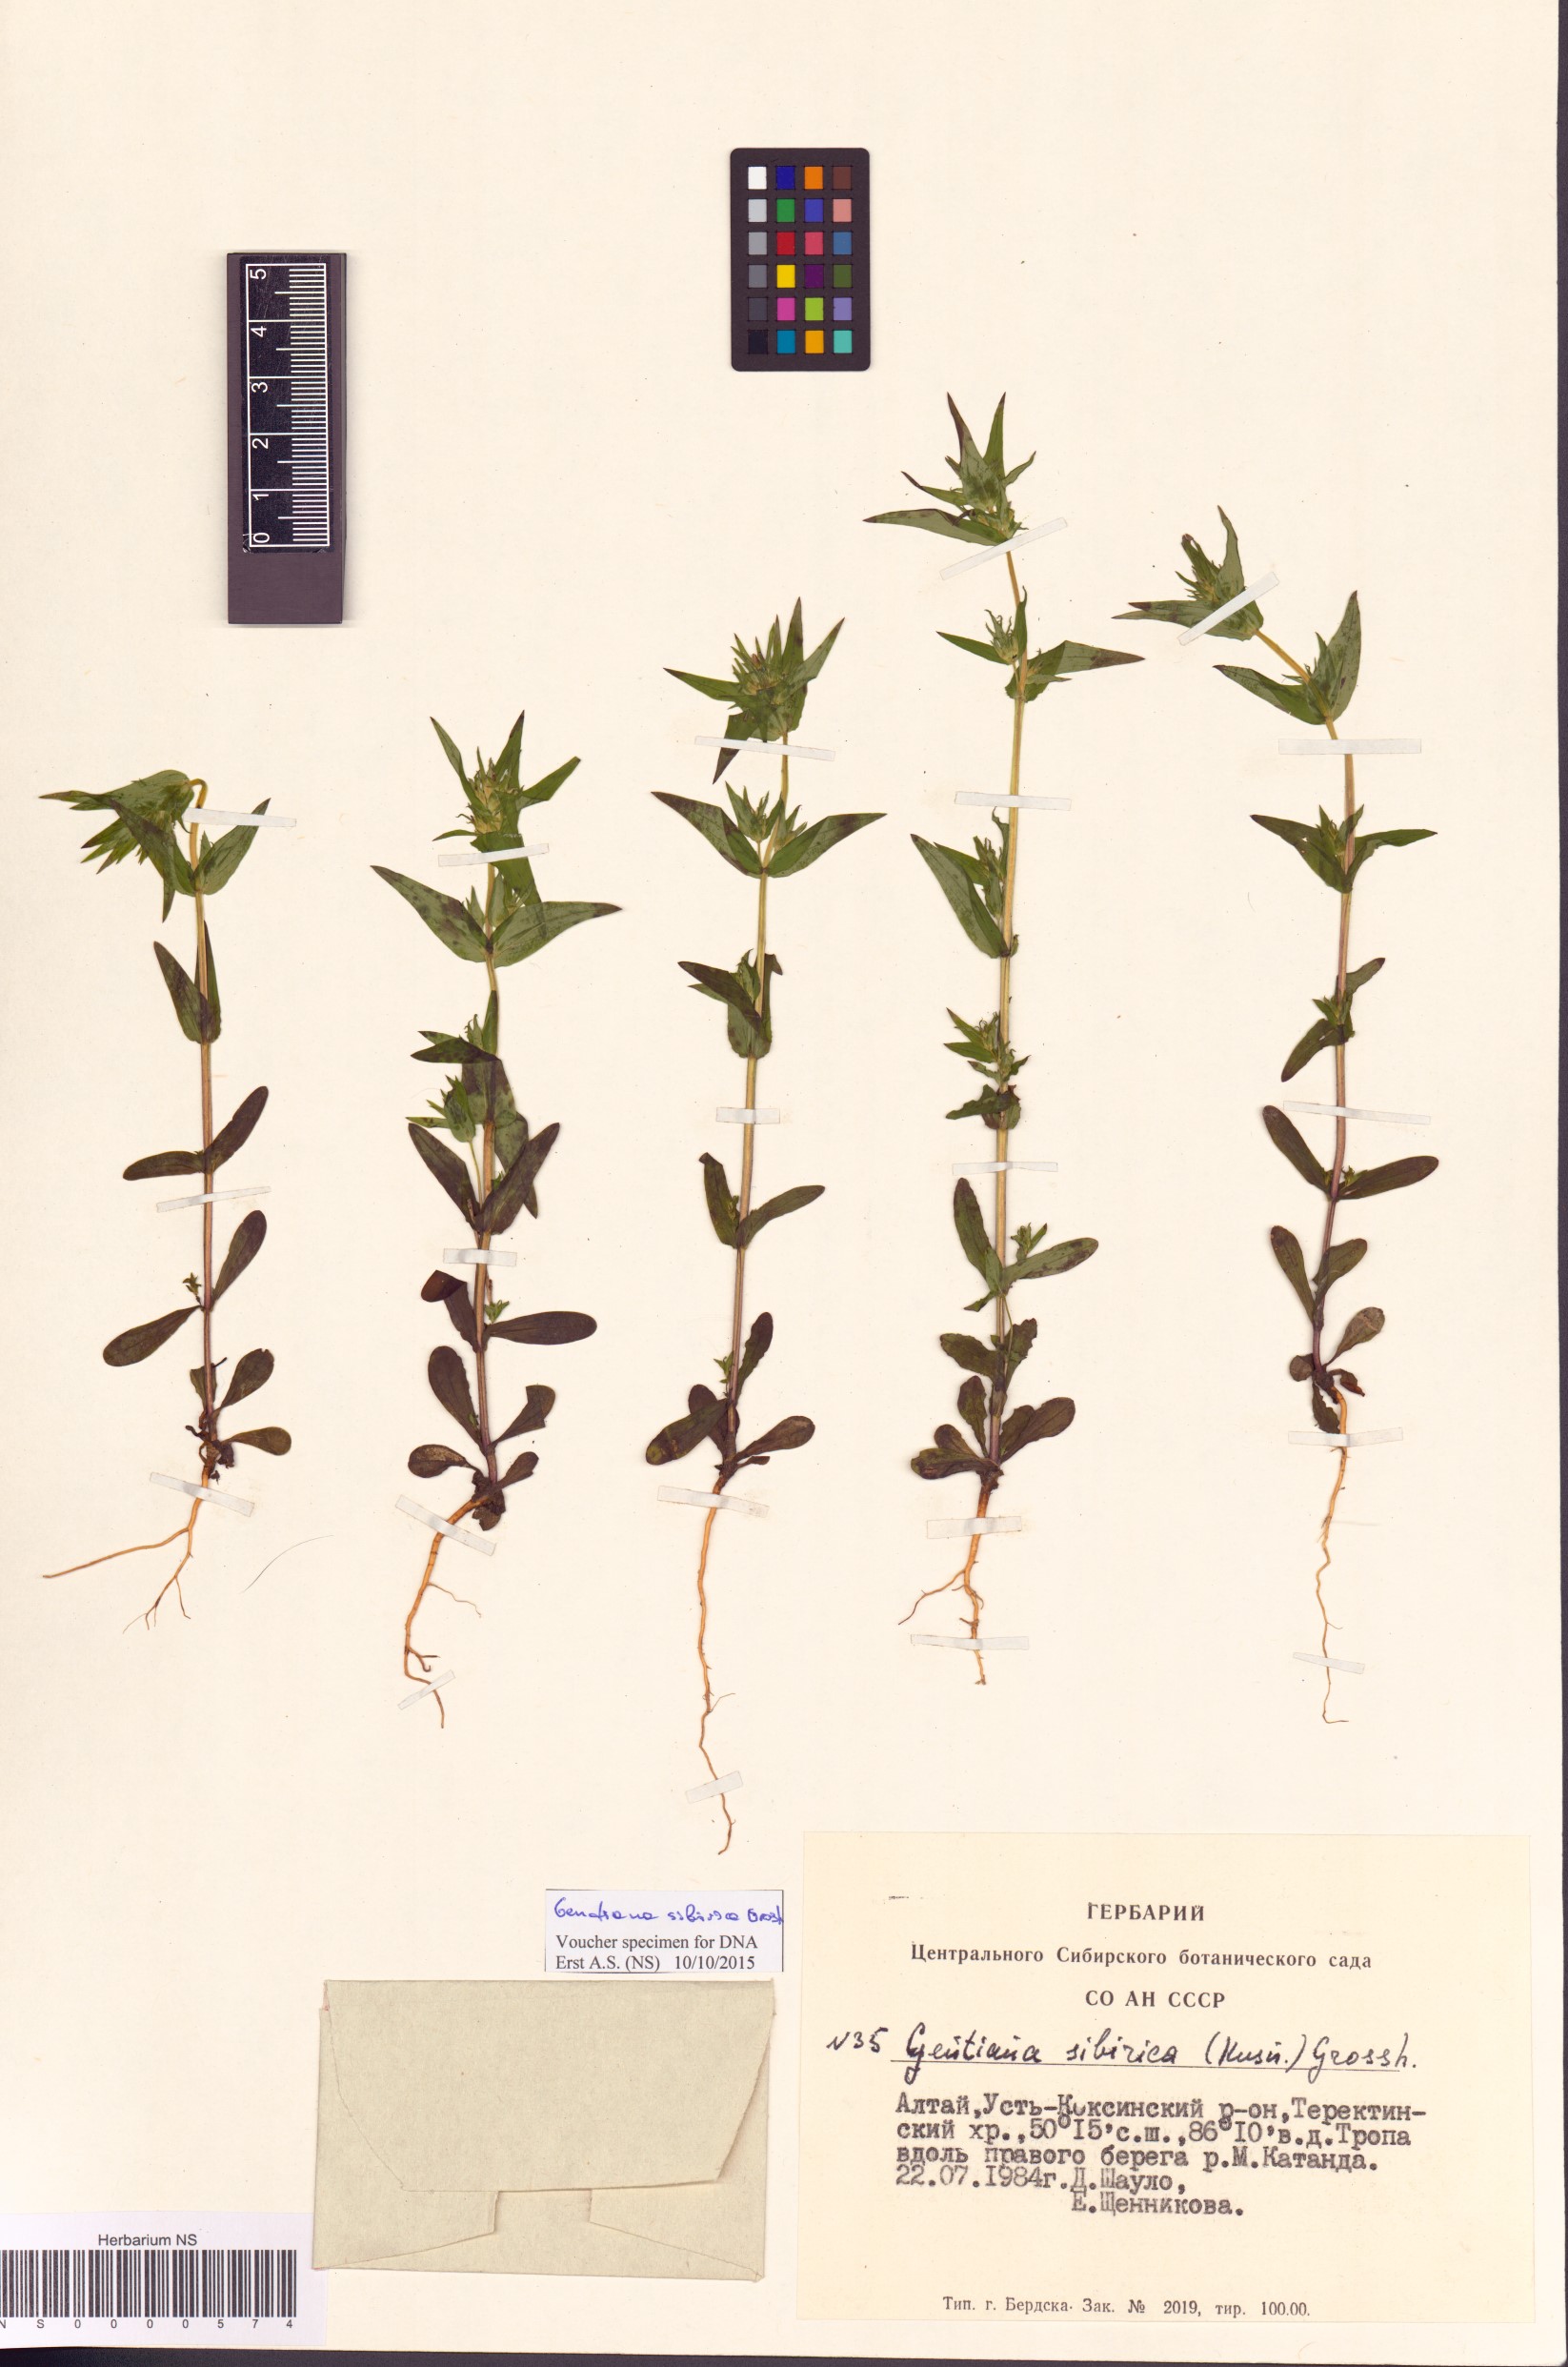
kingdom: Plantae
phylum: Tracheophyta
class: Magnoliopsida
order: Gentianales
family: Gentianaceae
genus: Gentianella
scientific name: Gentianella sibirica
